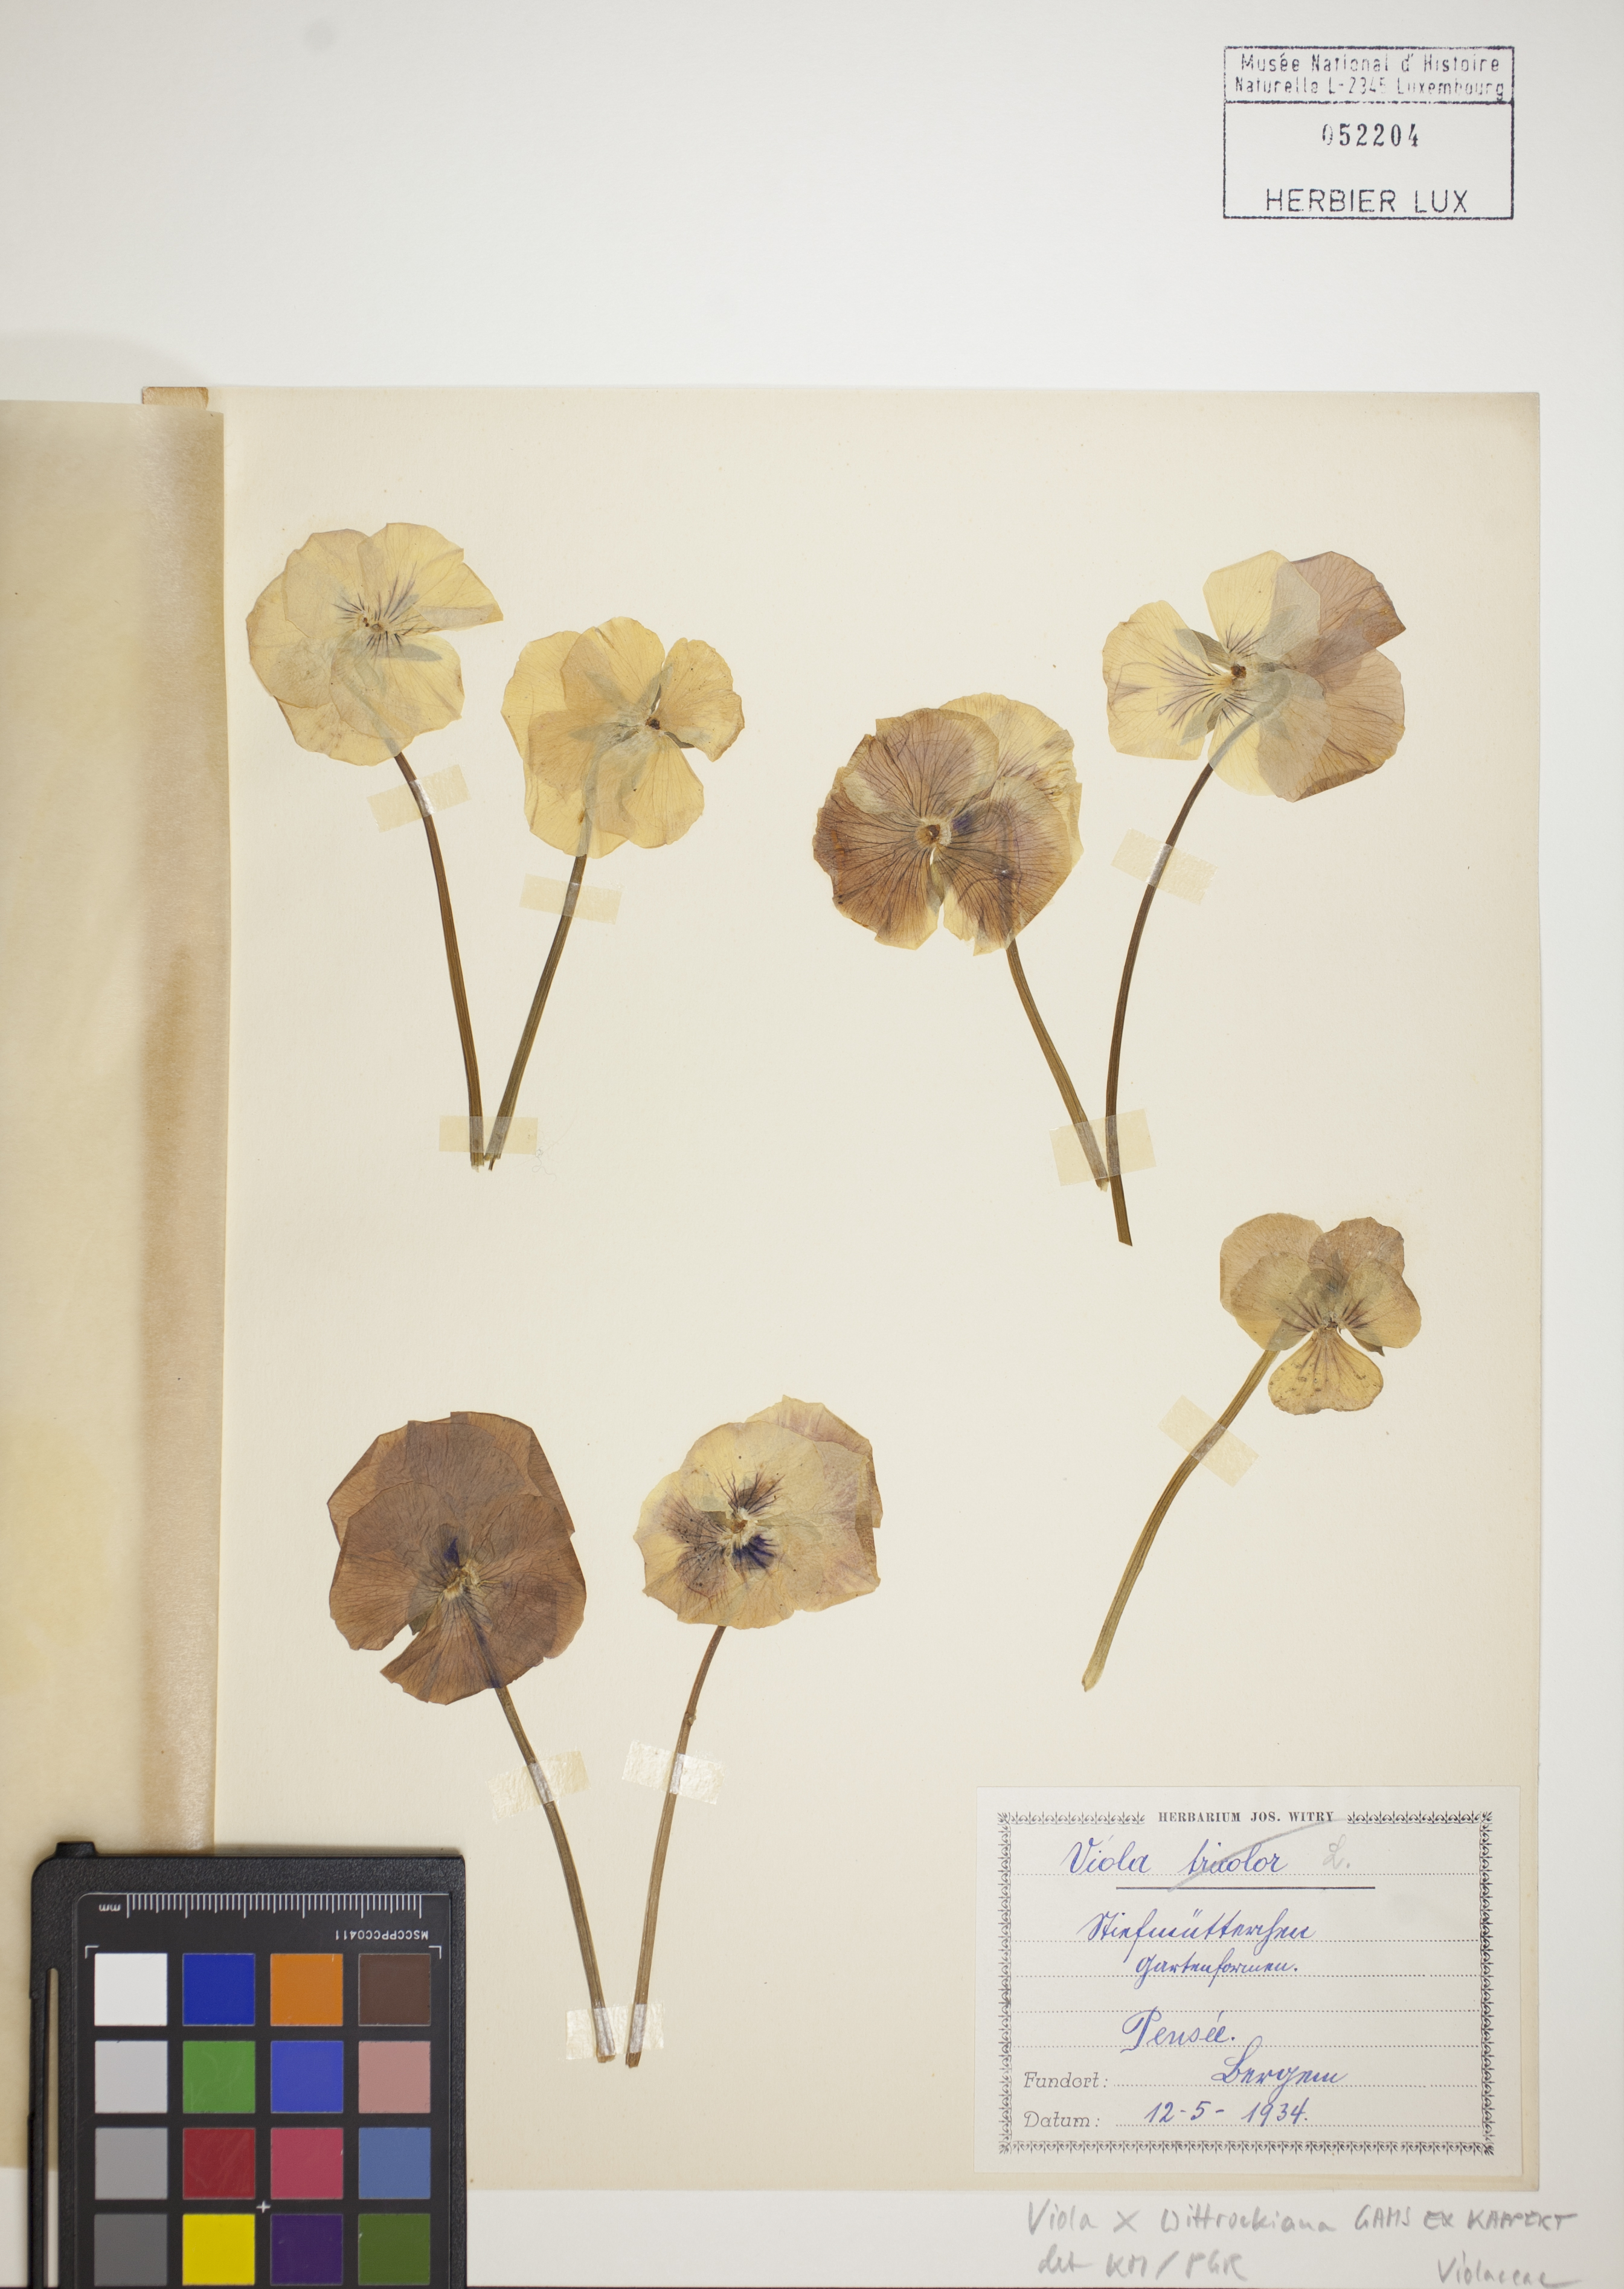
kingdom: Plantae
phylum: Tracheophyta
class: Magnoliopsida
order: Malpighiales
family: Violaceae
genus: Viola
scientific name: Viola wittrockiana
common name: Garden pansy
